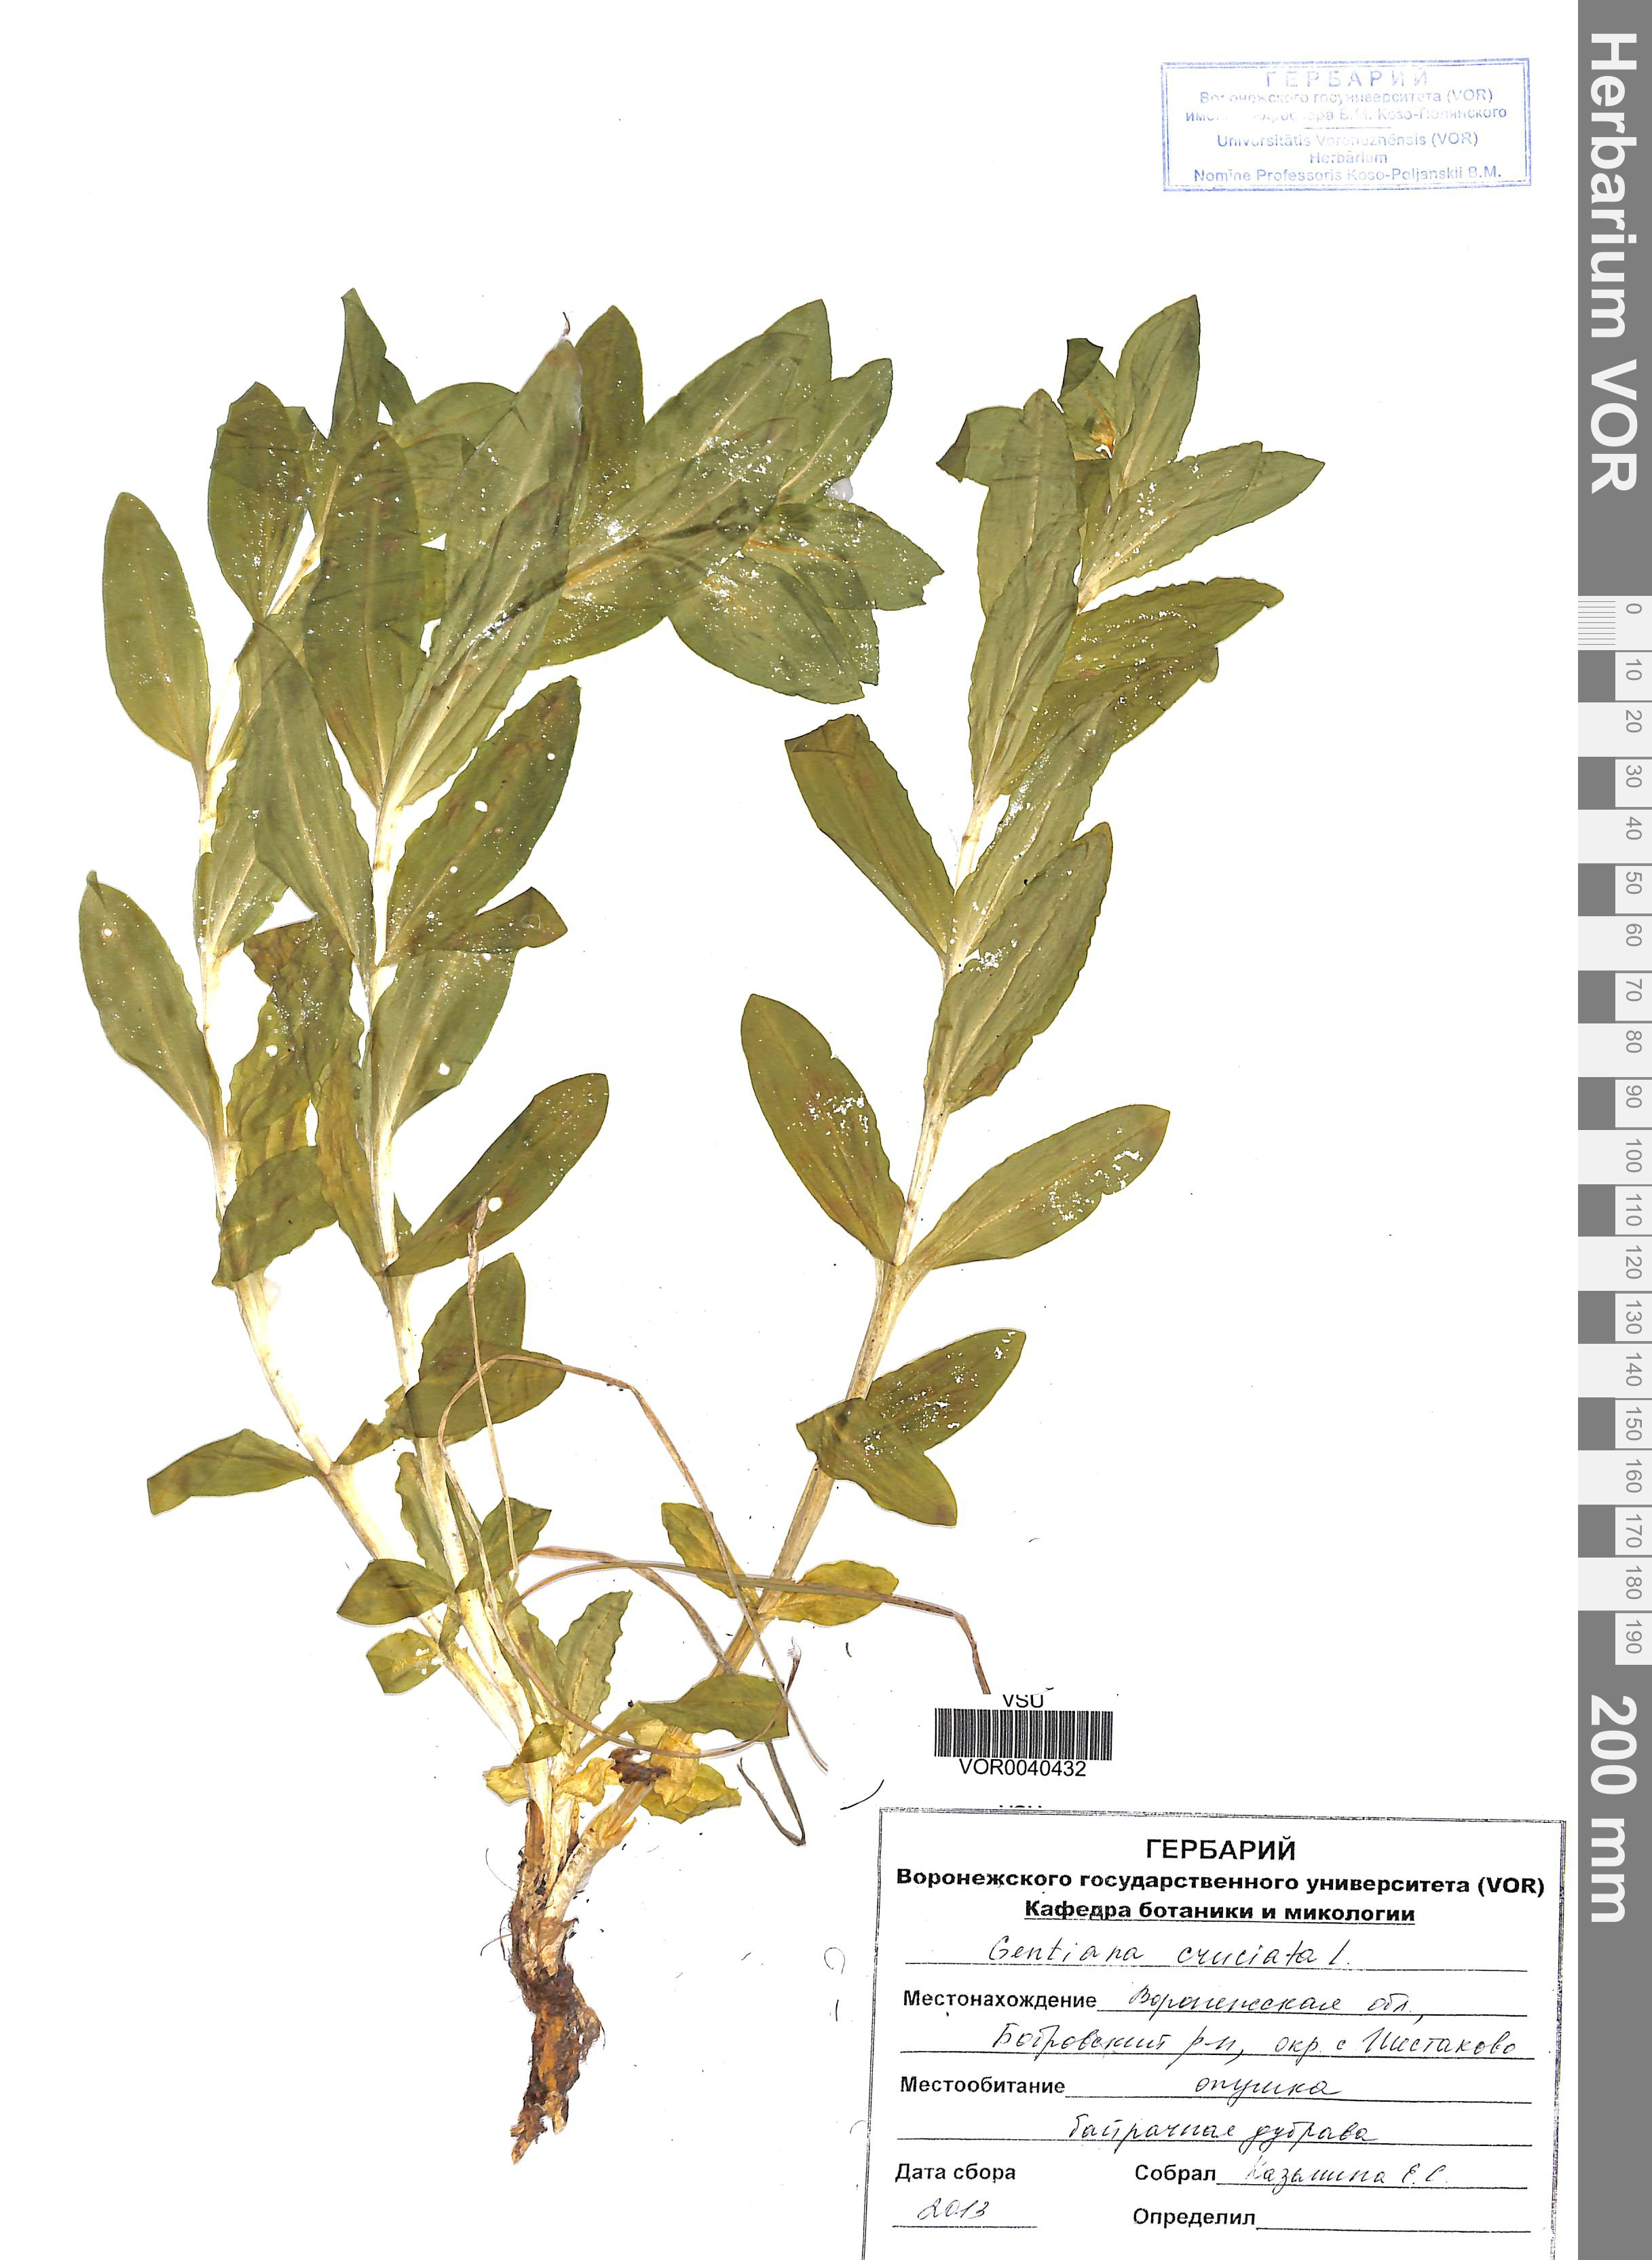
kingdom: Plantae
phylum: Tracheophyta
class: Magnoliopsida
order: Gentianales
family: Gentianaceae
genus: Gentiana
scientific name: Gentiana cruciata
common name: Cross gentian
